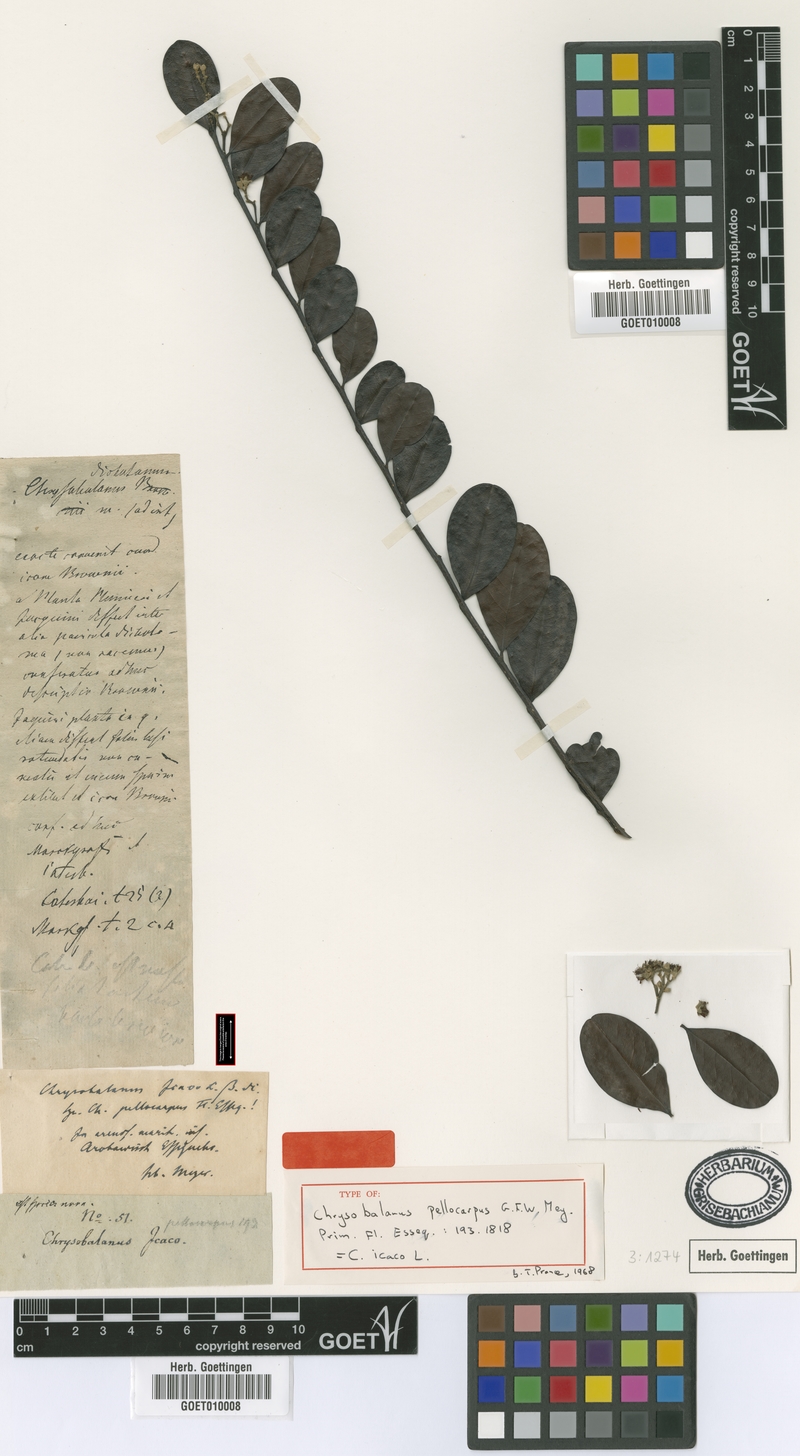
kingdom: Plantae
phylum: Tracheophyta
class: Magnoliopsida
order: Malpighiales
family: Chrysobalanaceae
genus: Chrysobalanus
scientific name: Chrysobalanus icaco
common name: Coco plum
